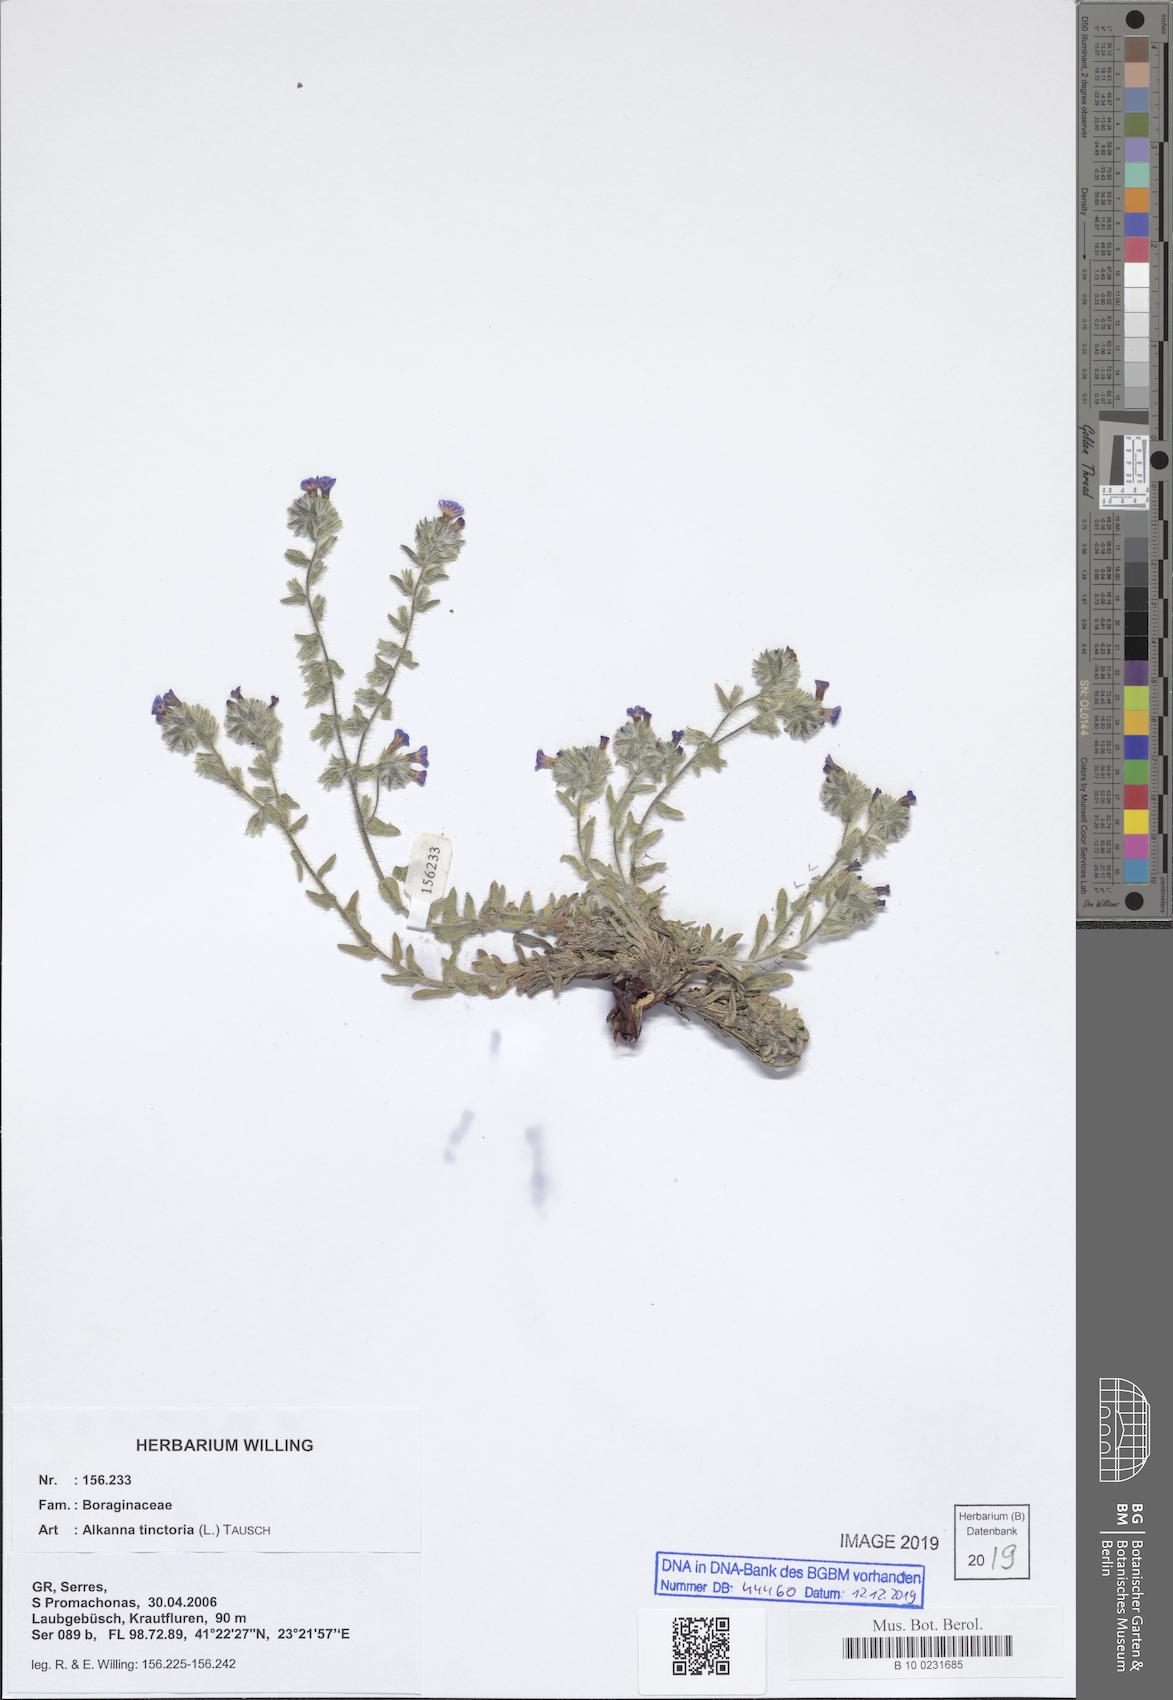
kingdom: Plantae
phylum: Tracheophyta
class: Magnoliopsida
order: Boraginales
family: Boraginaceae
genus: Alkanna
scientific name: Alkanna tinctoria
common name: Dyer's-alkanet
